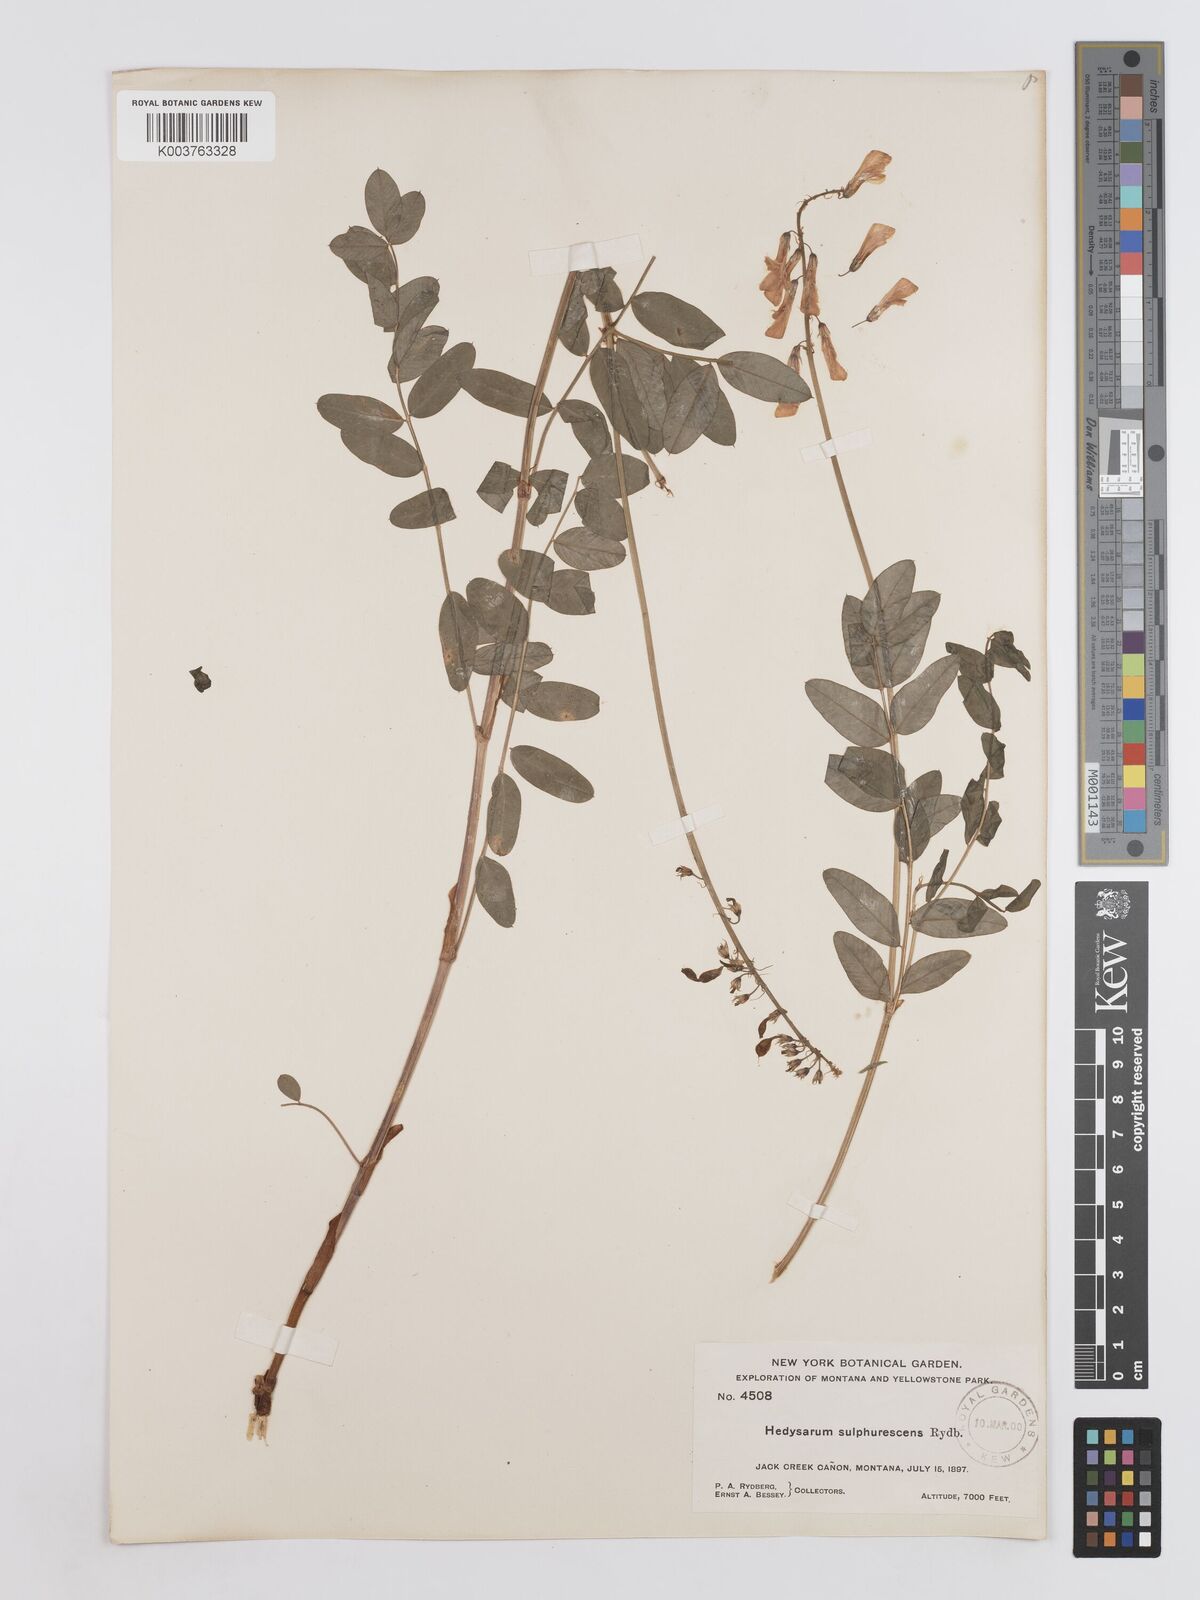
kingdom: Plantae
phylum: Tracheophyta
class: Magnoliopsida
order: Fabales
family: Fabaceae
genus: Hedysarum
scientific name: Hedysarum sulphurescens
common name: Sulphur hedysarum
